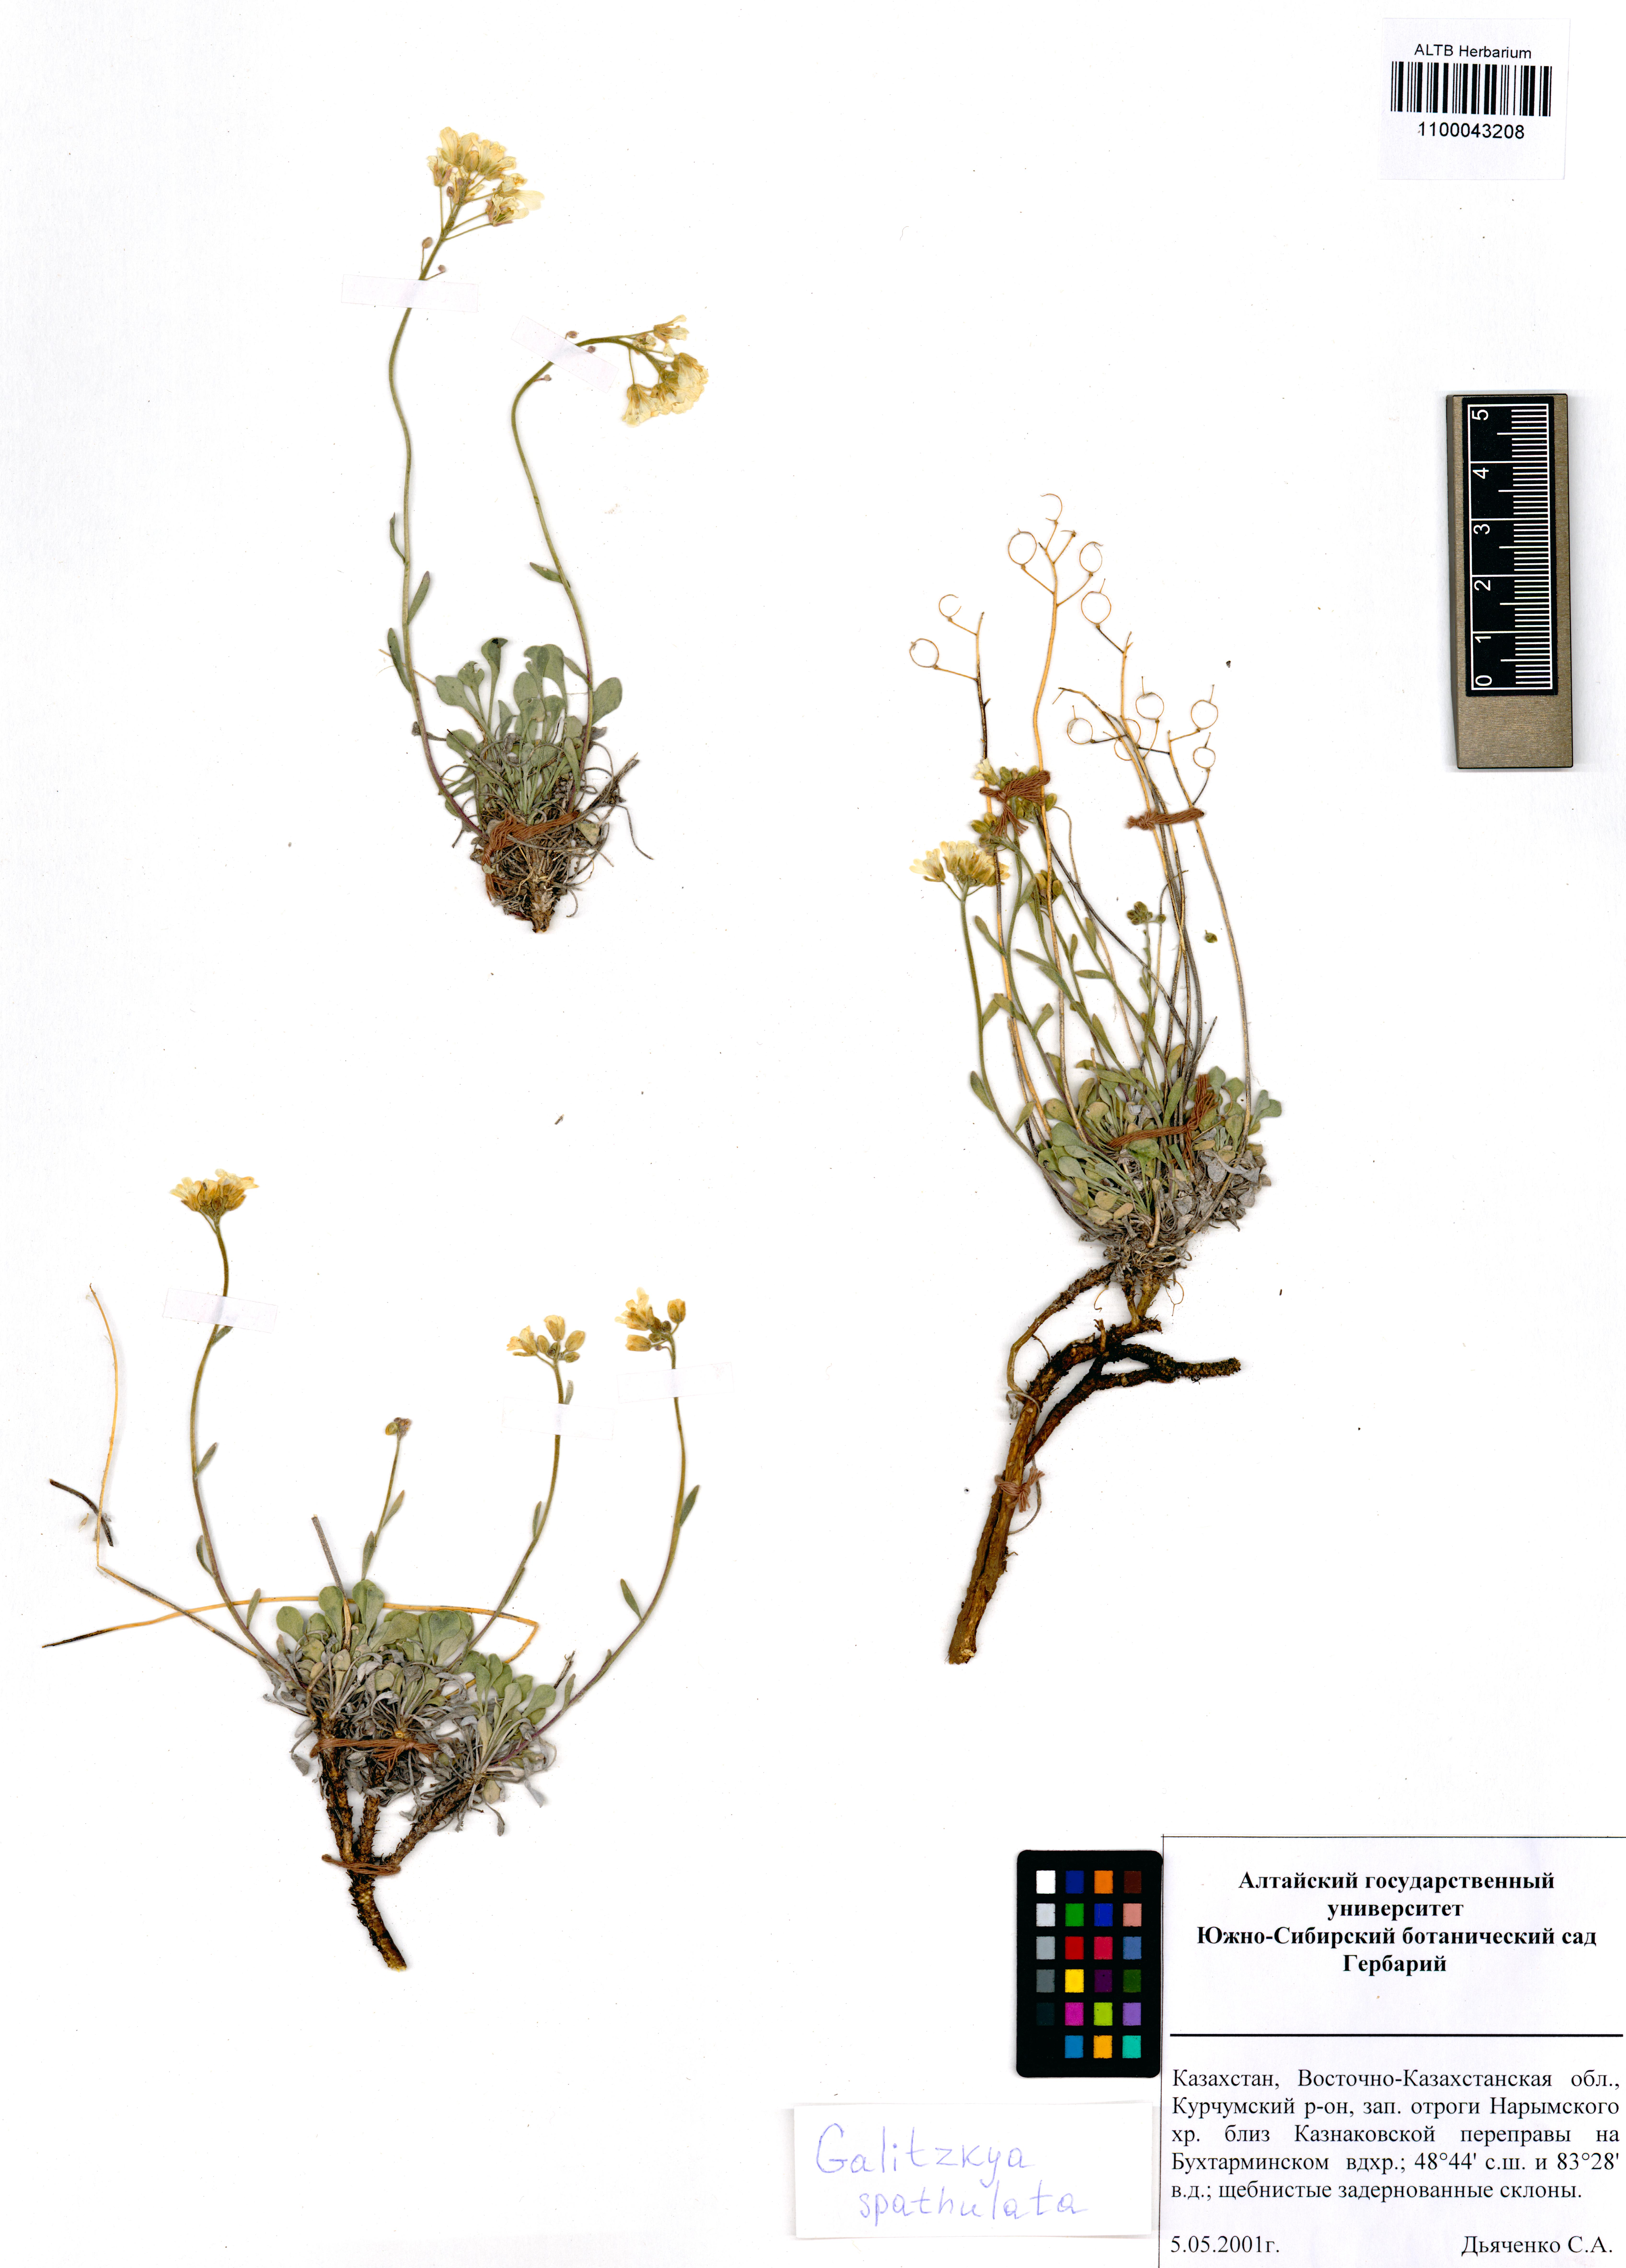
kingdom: Plantae
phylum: Tracheophyta
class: Magnoliopsida
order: Brassicales
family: Brassicaceae
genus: Galitzkya
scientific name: Galitzkya spathulata
